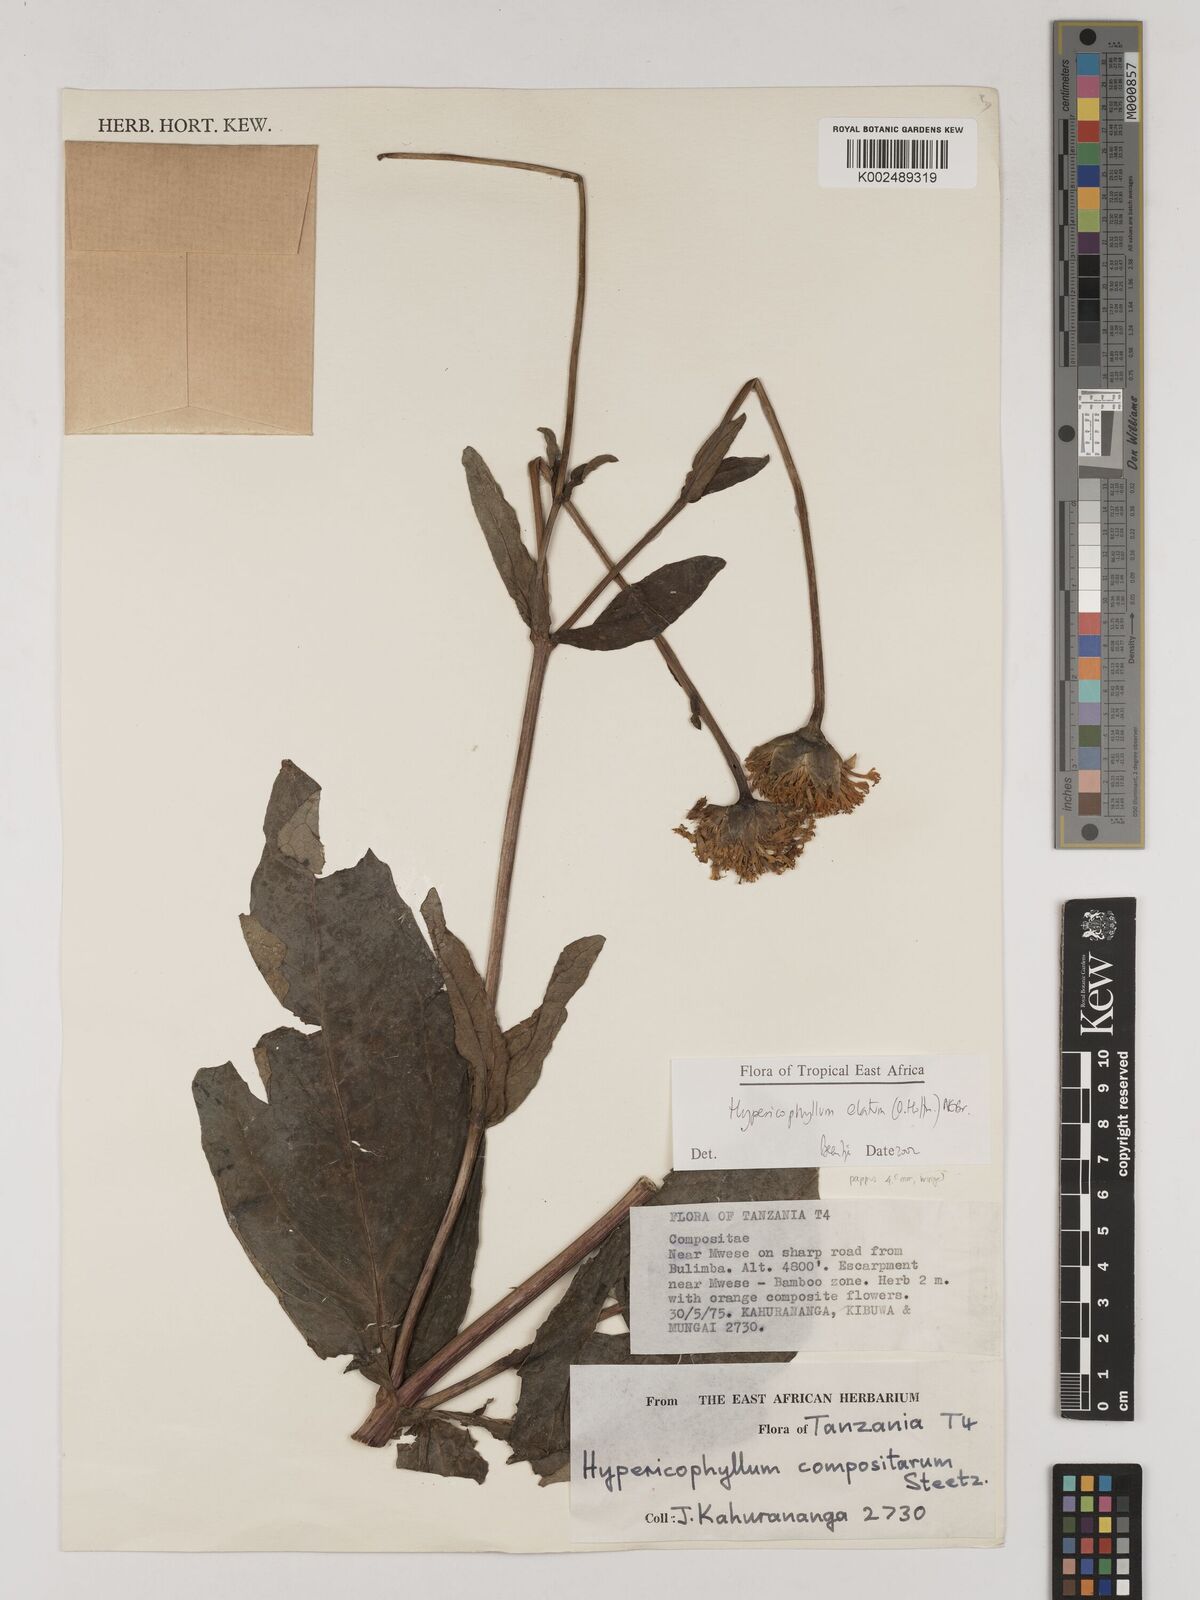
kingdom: Plantae
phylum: Tracheophyta
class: Magnoliopsida
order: Asterales
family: Asteraceae
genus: Hypericophyllum
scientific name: Hypericophyllum elatum
